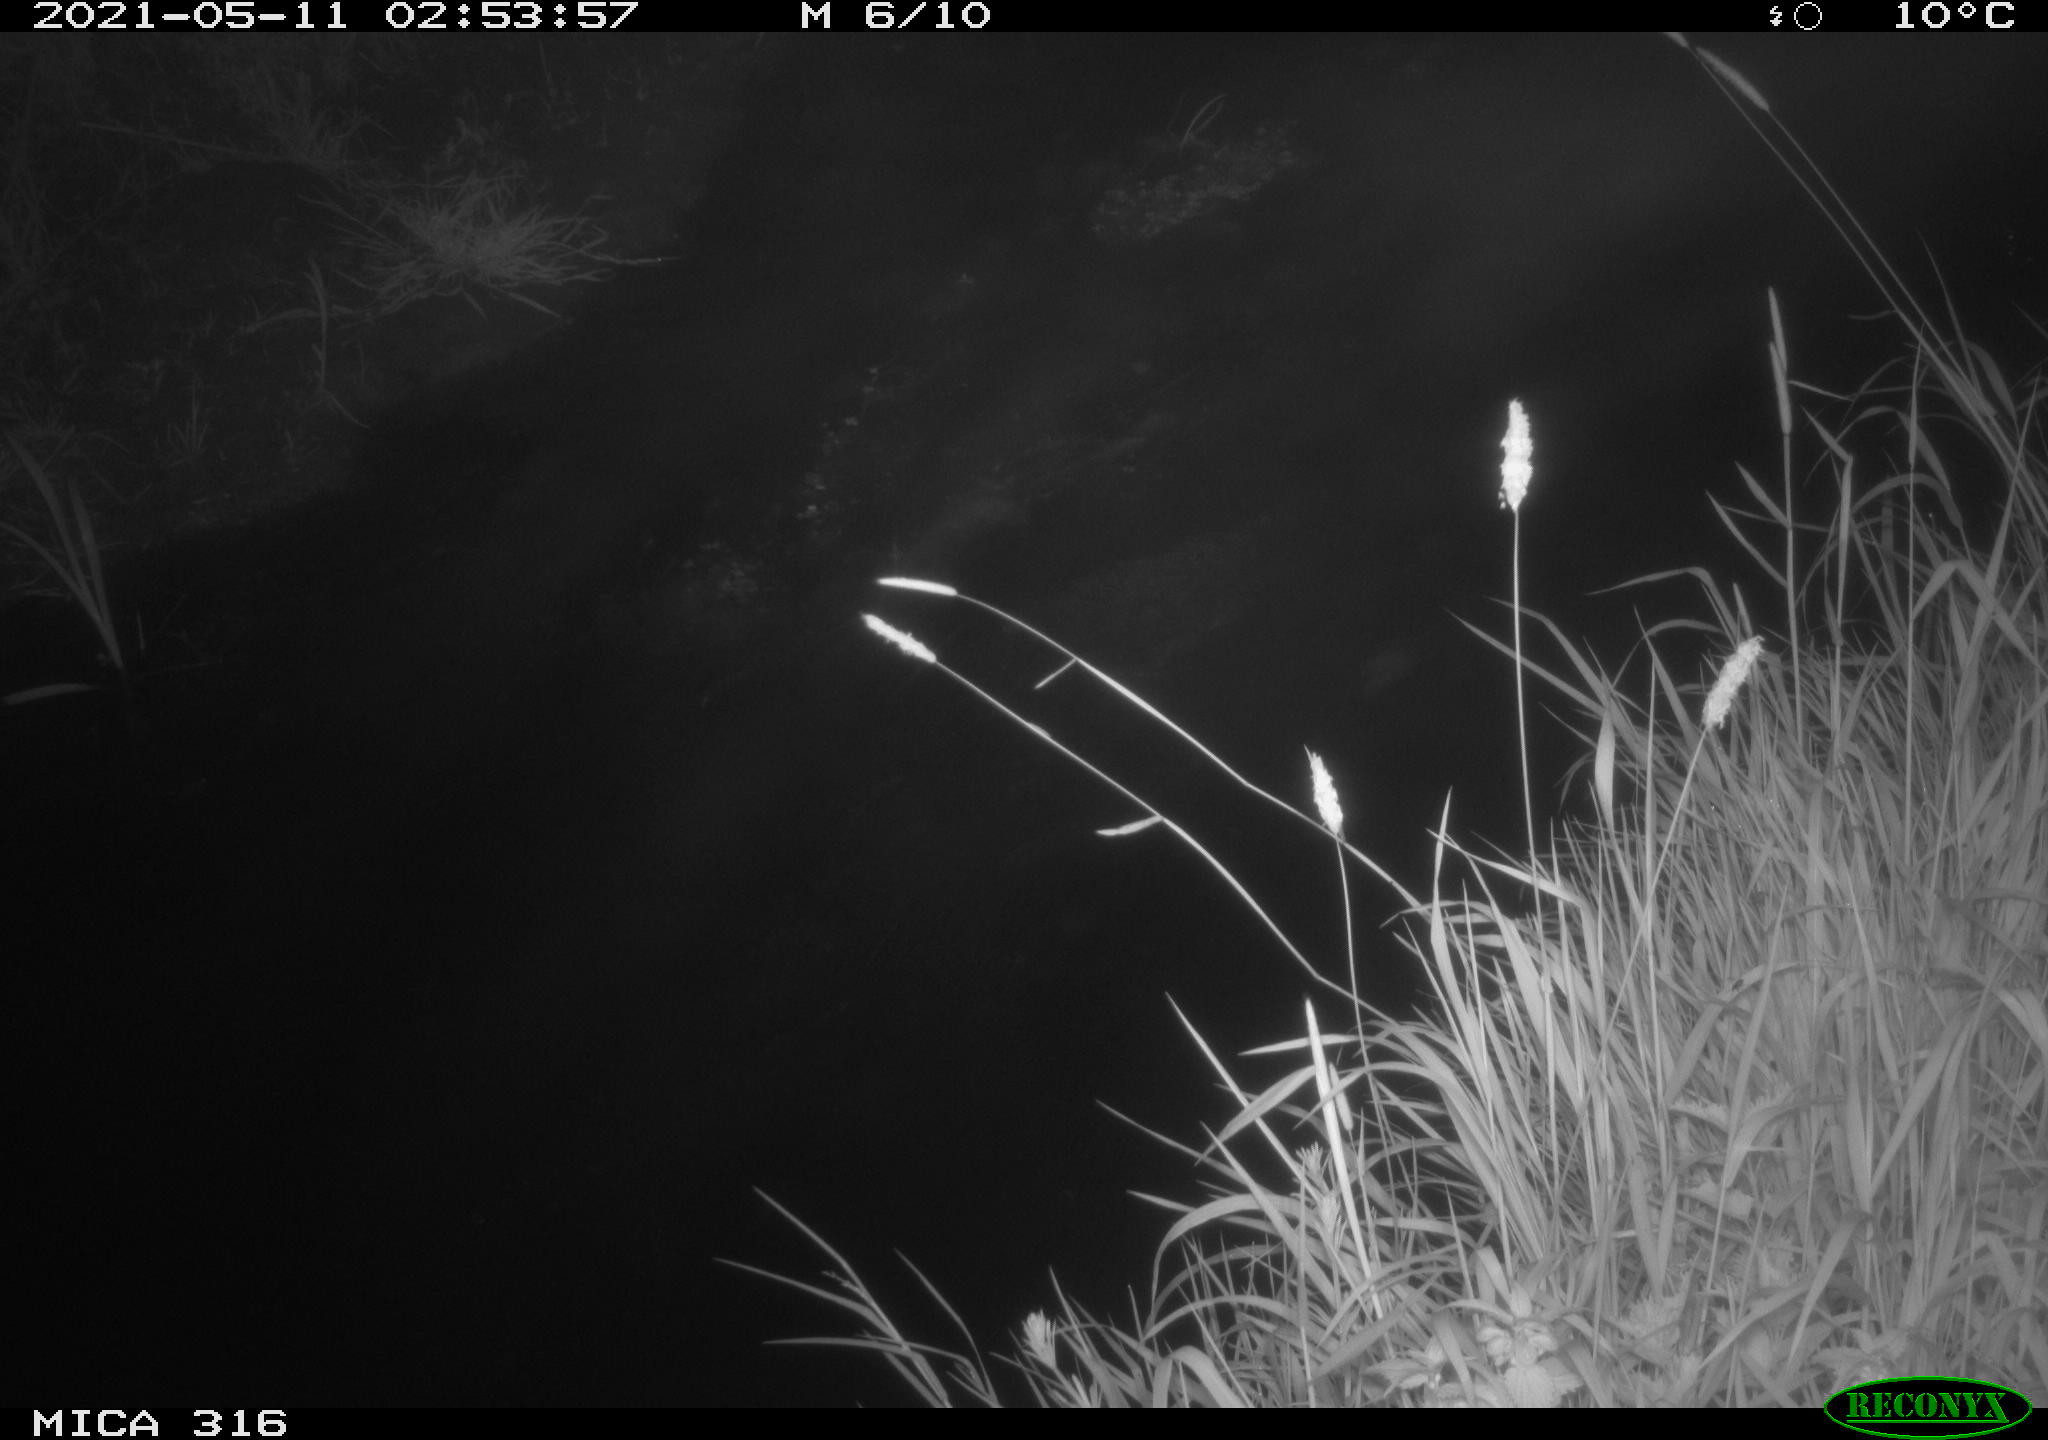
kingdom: Animalia
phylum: Chordata
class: Aves
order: Anseriformes
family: Anatidae
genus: Anas
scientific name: Anas platyrhynchos
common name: Mallard
